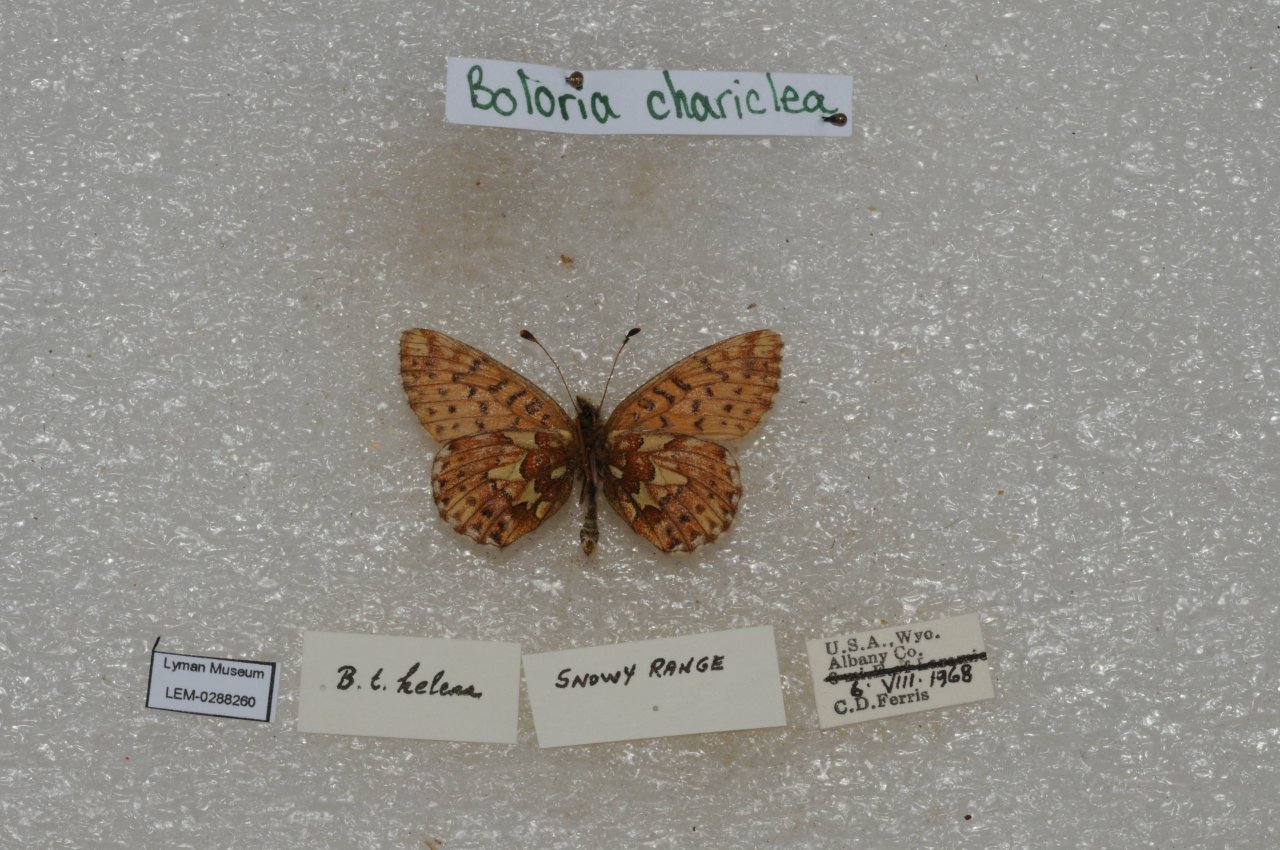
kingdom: Animalia
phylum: Arthropoda
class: Insecta
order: Lepidoptera
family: Nymphalidae
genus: Boloria
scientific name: Boloria chariclea
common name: Arctic Fritillary
